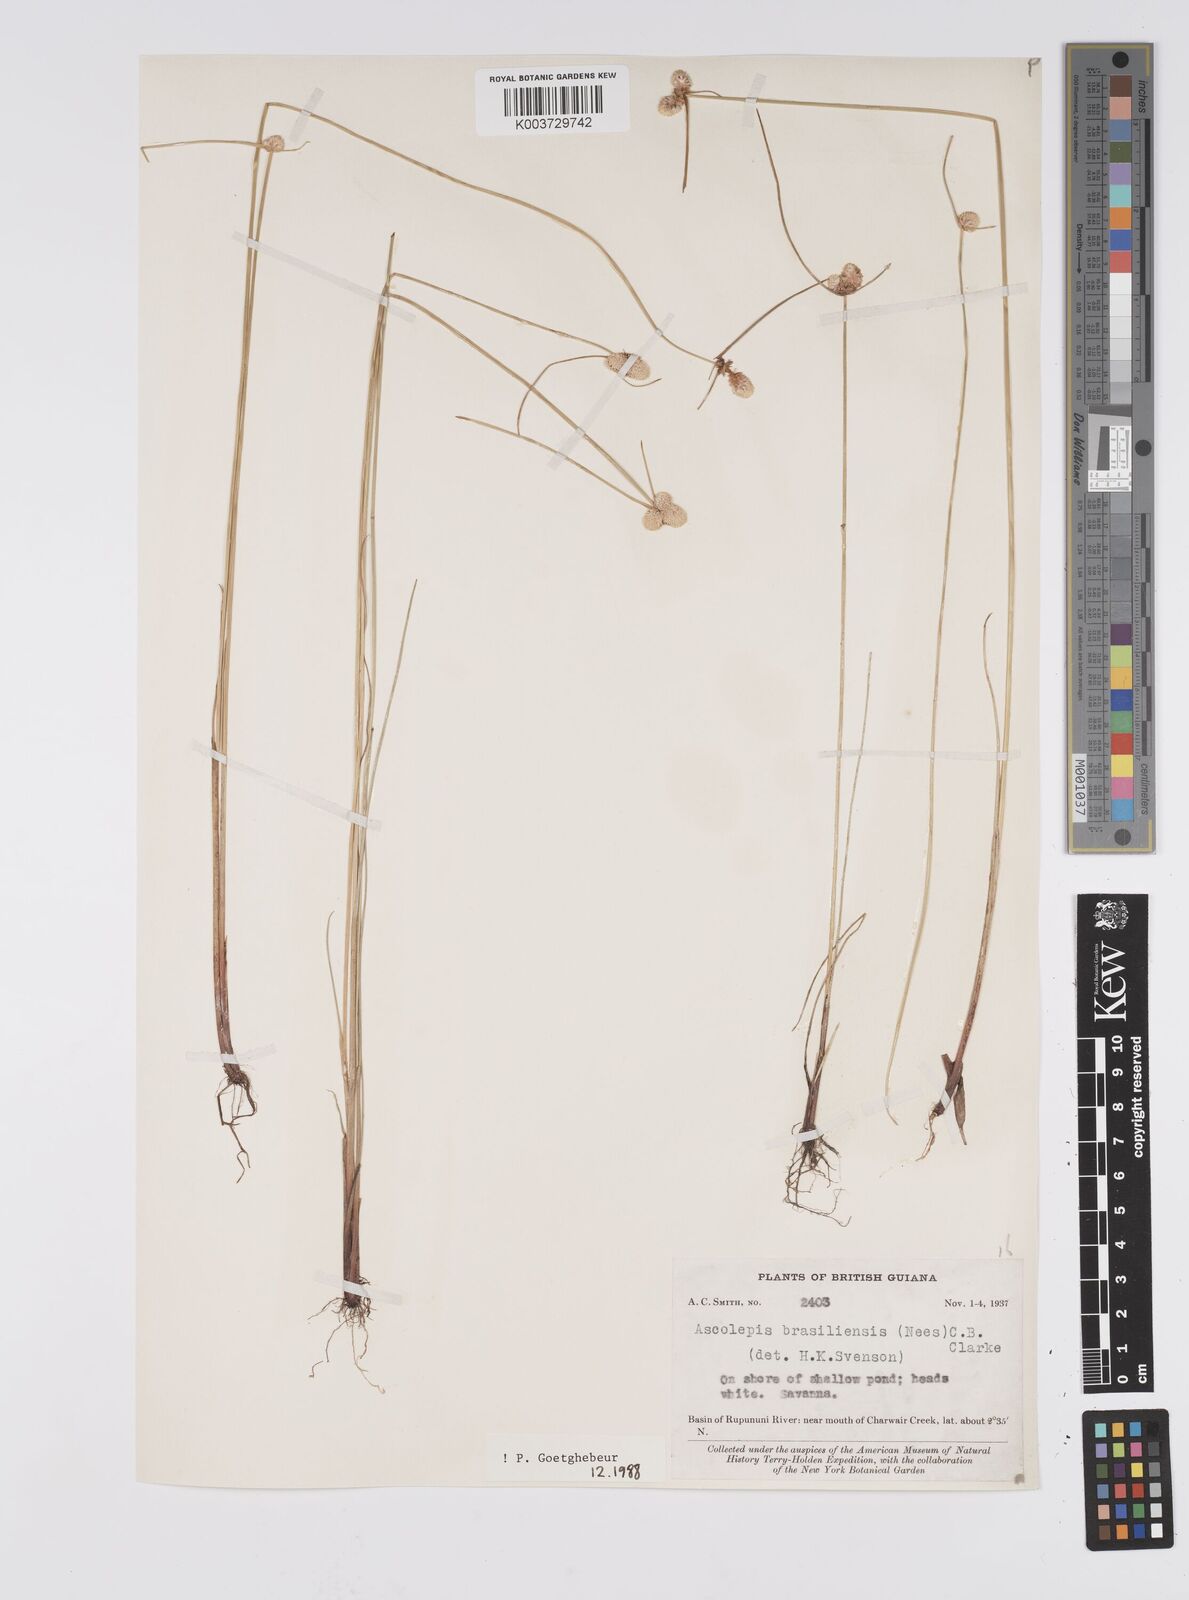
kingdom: Plantae
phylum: Tracheophyta
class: Liliopsida
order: Poales
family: Cyperaceae
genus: Cyperus
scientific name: Cyperus brasiliensis
